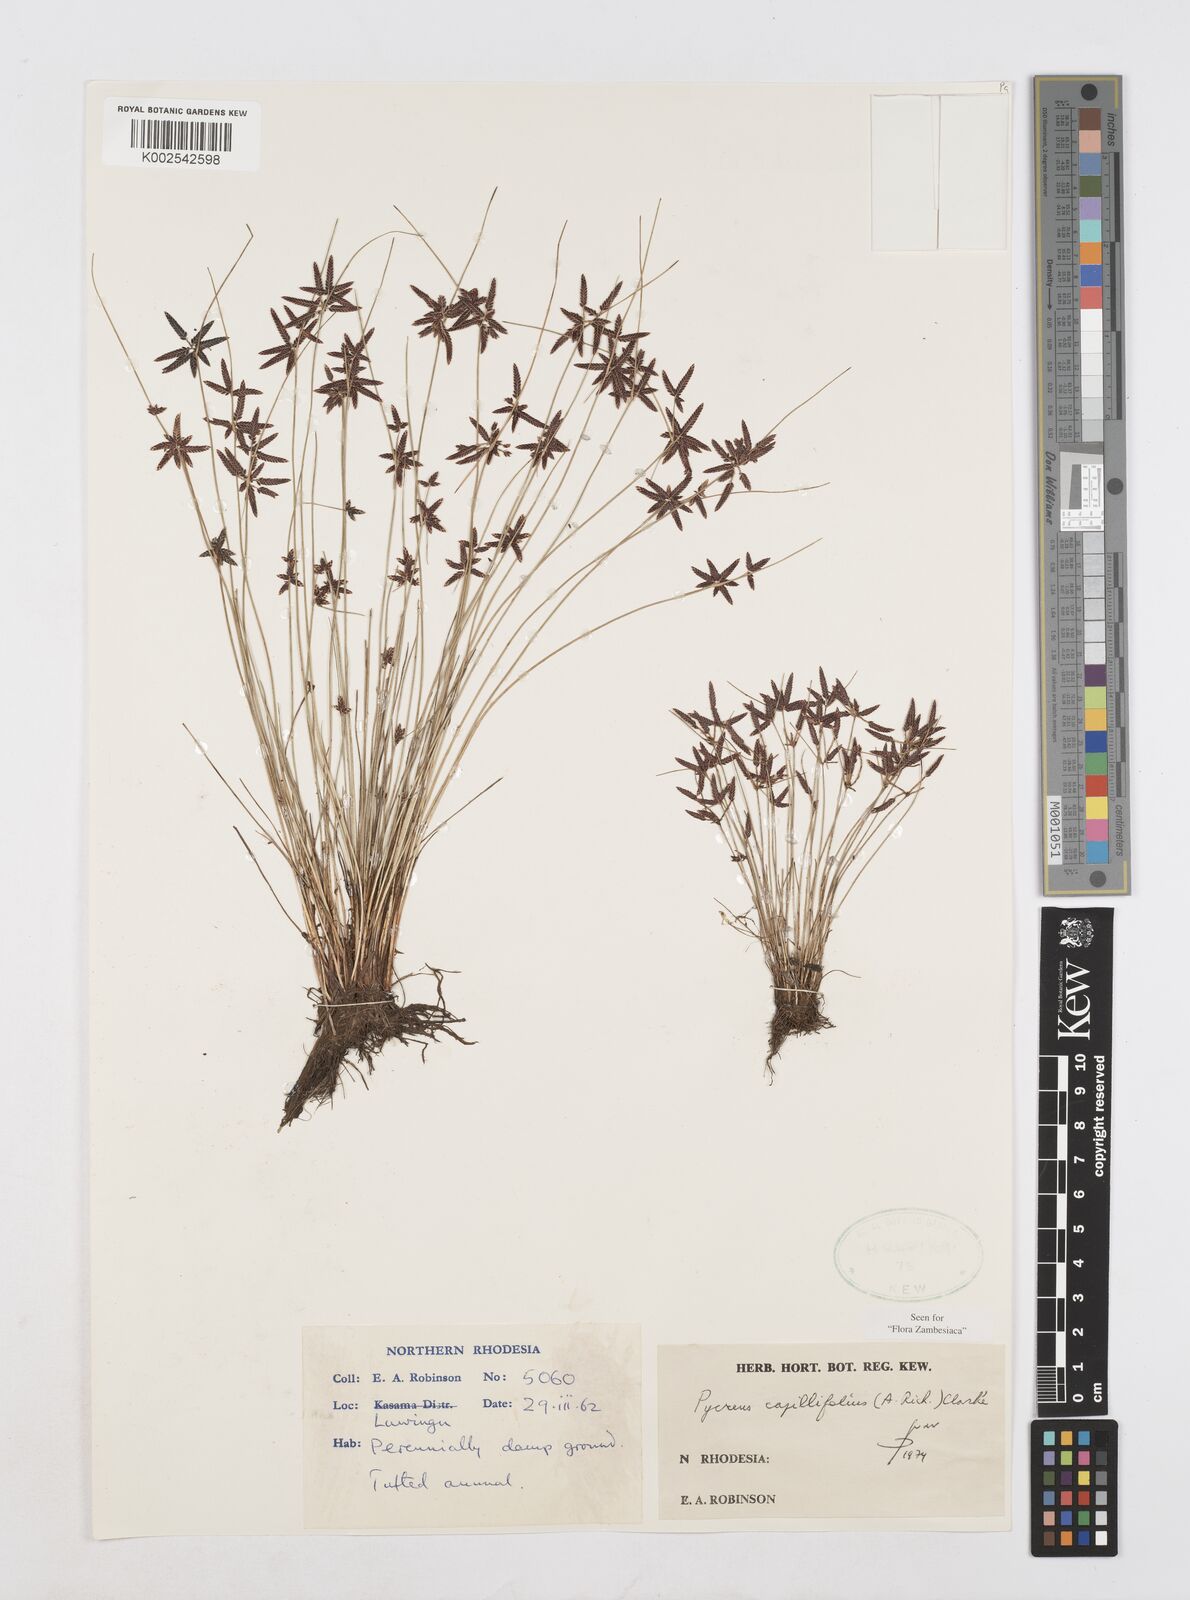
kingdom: Plantae
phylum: Tracheophyta
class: Liliopsida
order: Poales
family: Cyperaceae
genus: Cyperus
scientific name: Cyperus capillifolius
